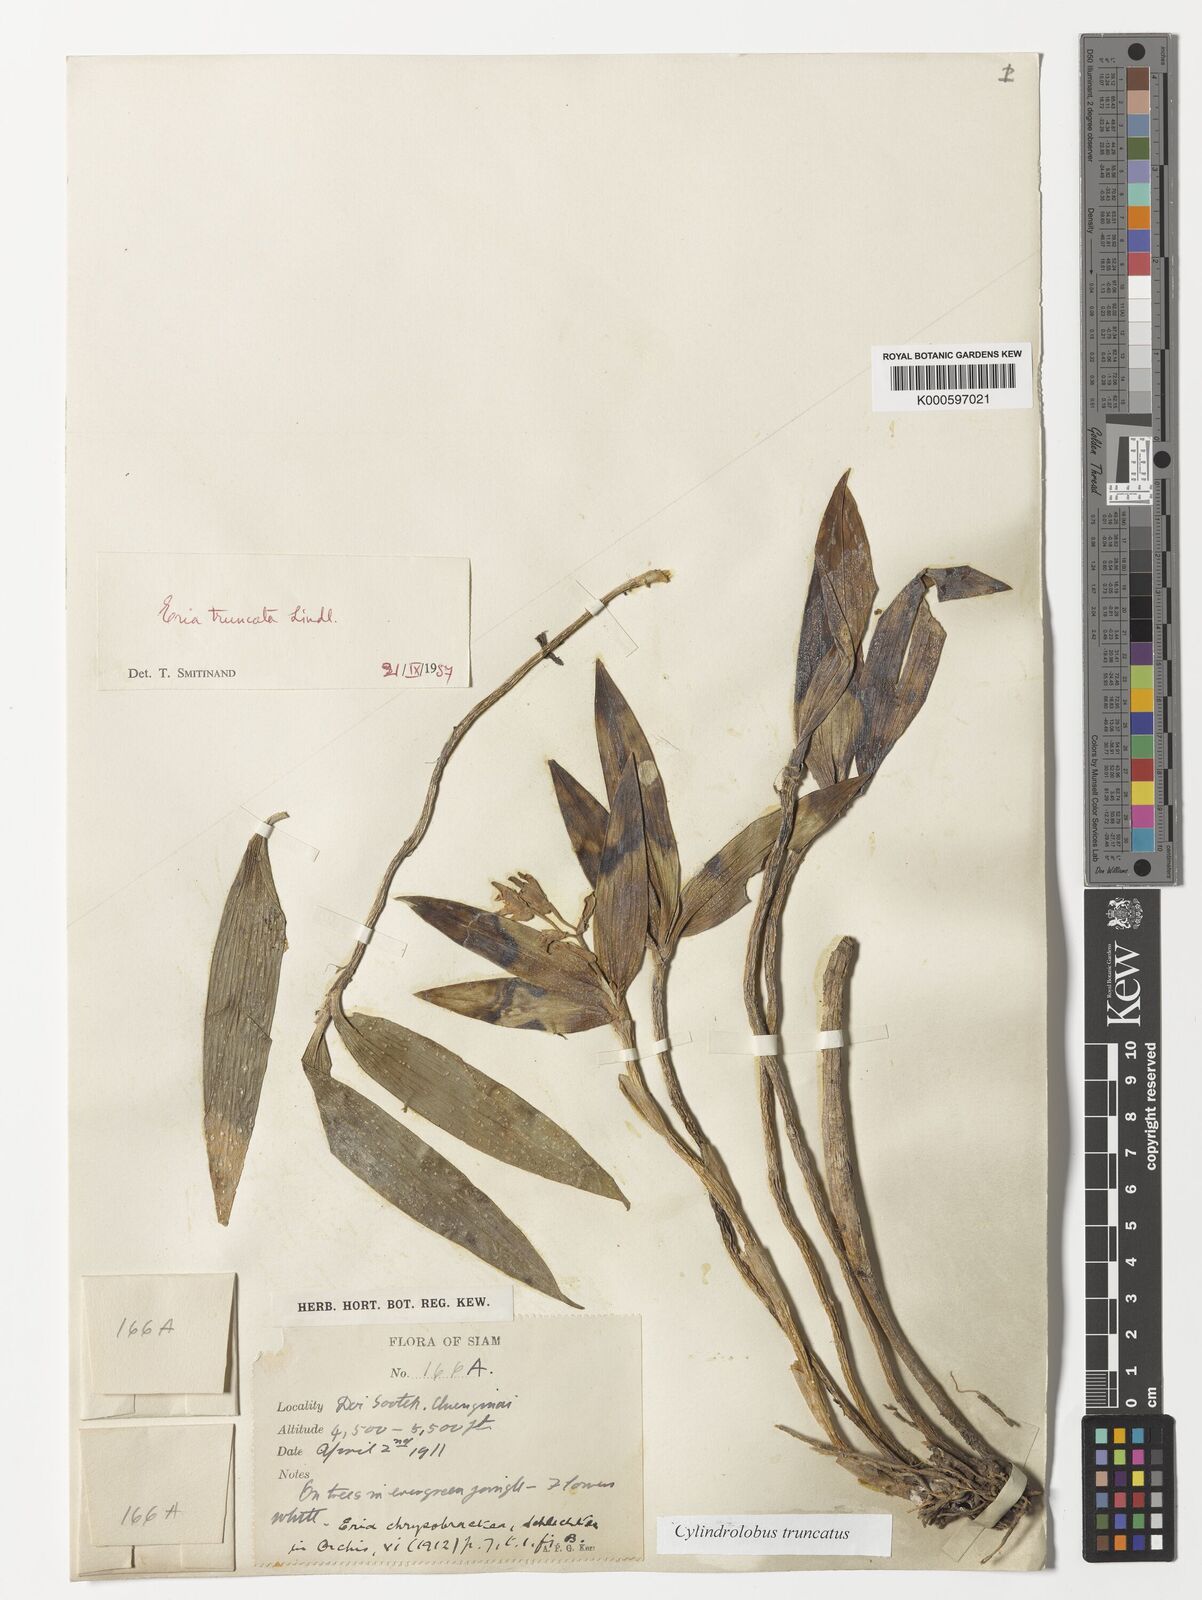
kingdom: Plantae
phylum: Tracheophyta
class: Liliopsida
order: Asparagales
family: Orchidaceae
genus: Cylindrolobus
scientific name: Cylindrolobus truncatus
